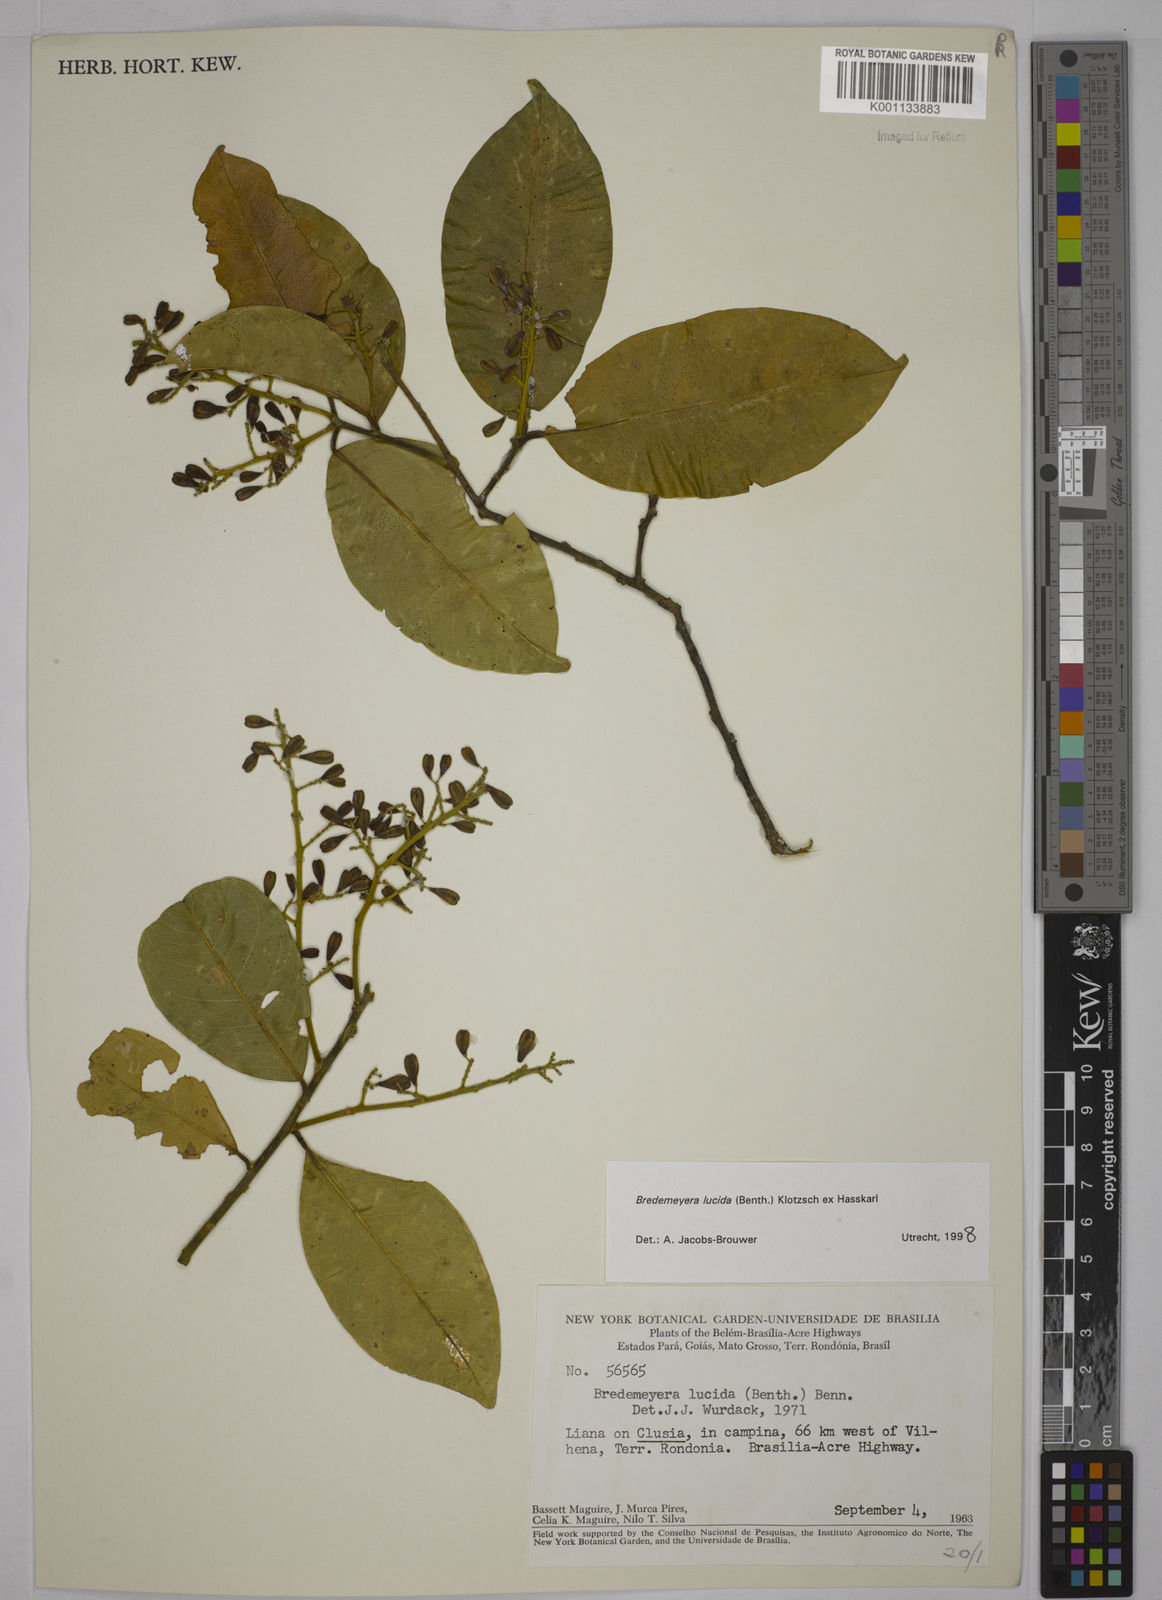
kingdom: Plantae
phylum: Tracheophyta
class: Magnoliopsida
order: Fabales
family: Polygalaceae
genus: Bredemeyera
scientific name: Bredemeyera lucida
